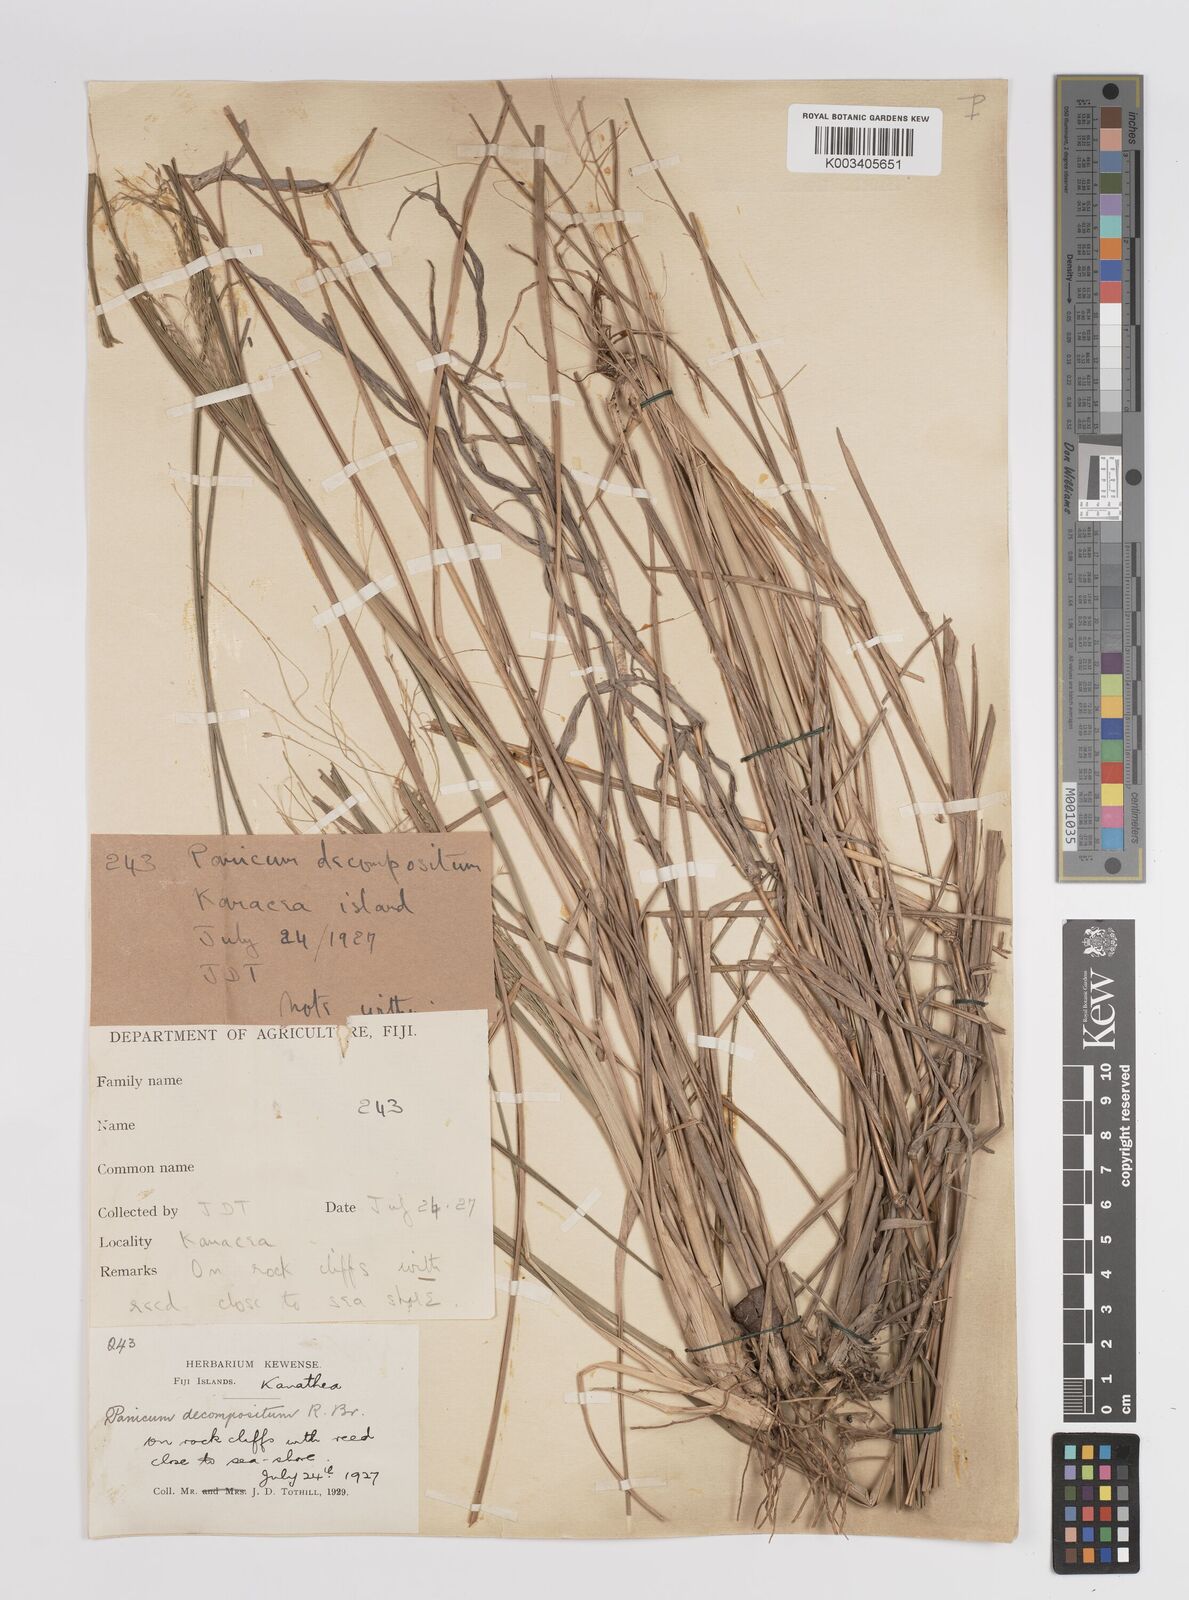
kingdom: Plantae
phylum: Tracheophyta
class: Liliopsida
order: Poales
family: Poaceae
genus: Panicum
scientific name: Panicum decompositum
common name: Australian millet
